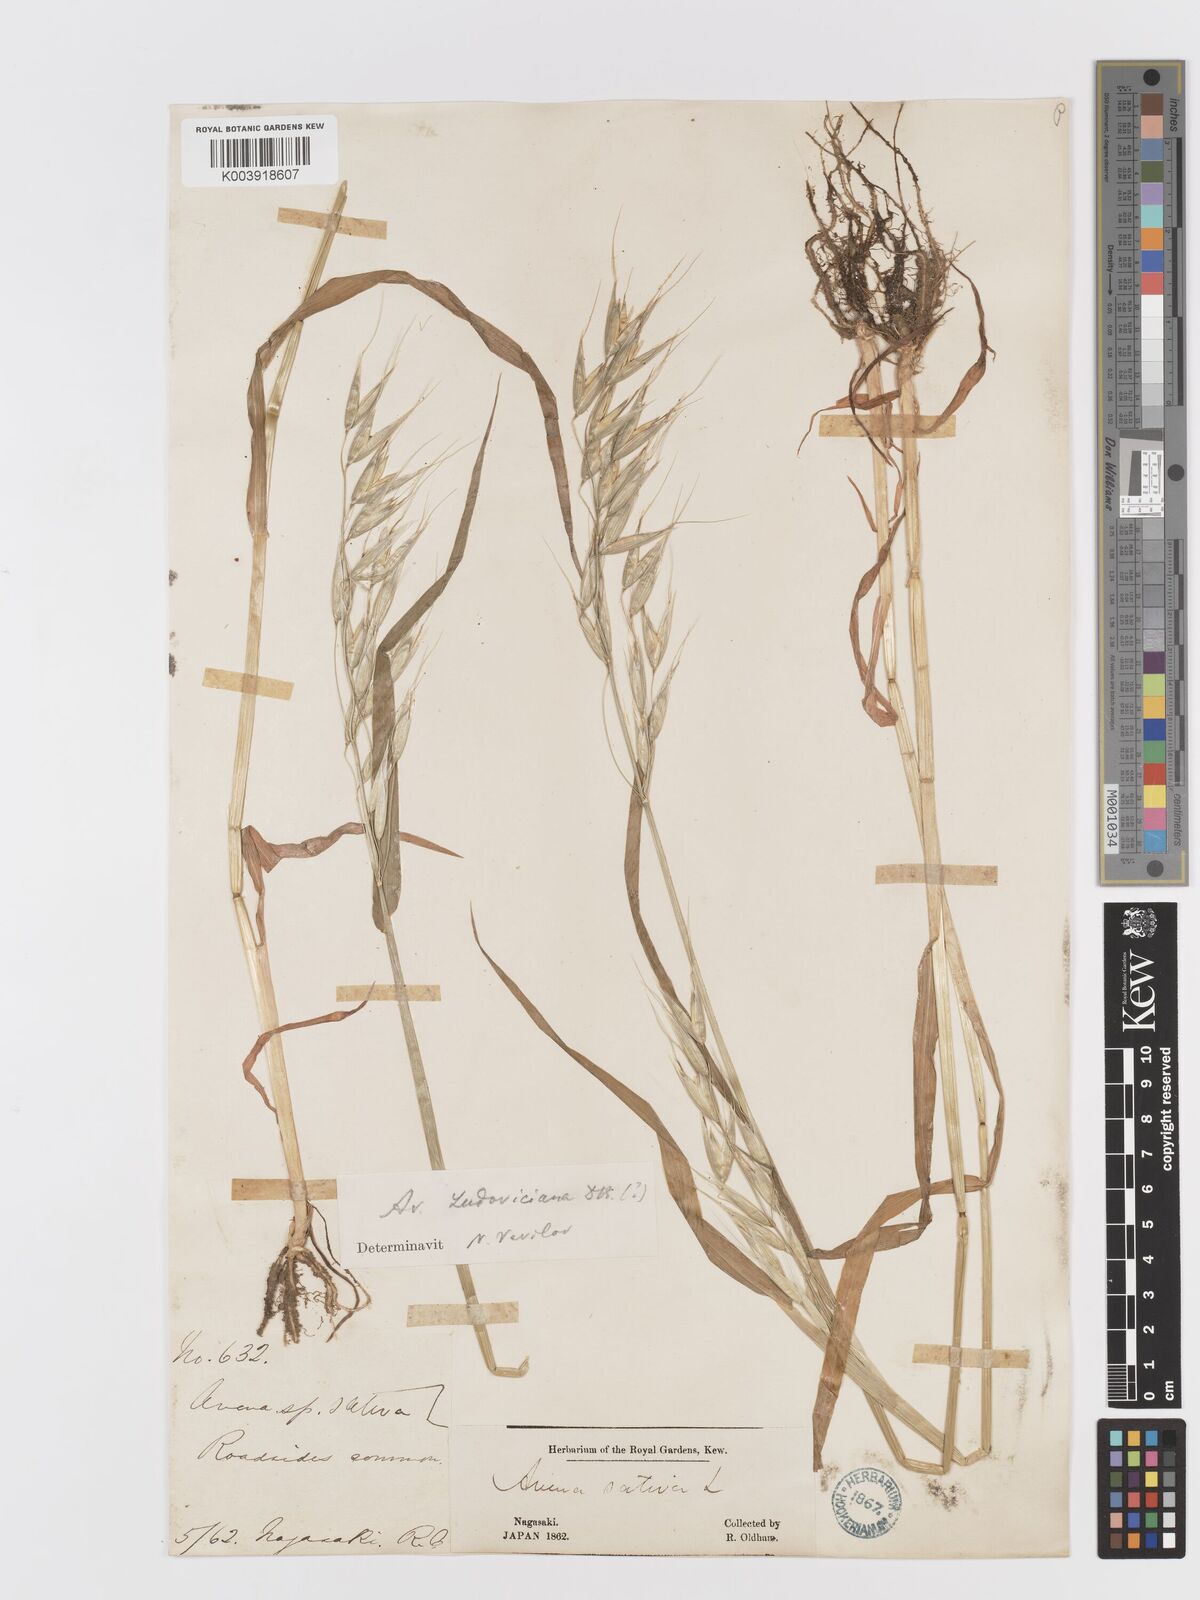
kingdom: Plantae
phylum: Tracheophyta
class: Liliopsida
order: Poales
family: Poaceae
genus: Avena
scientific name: Avena fatua
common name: Wild oat
